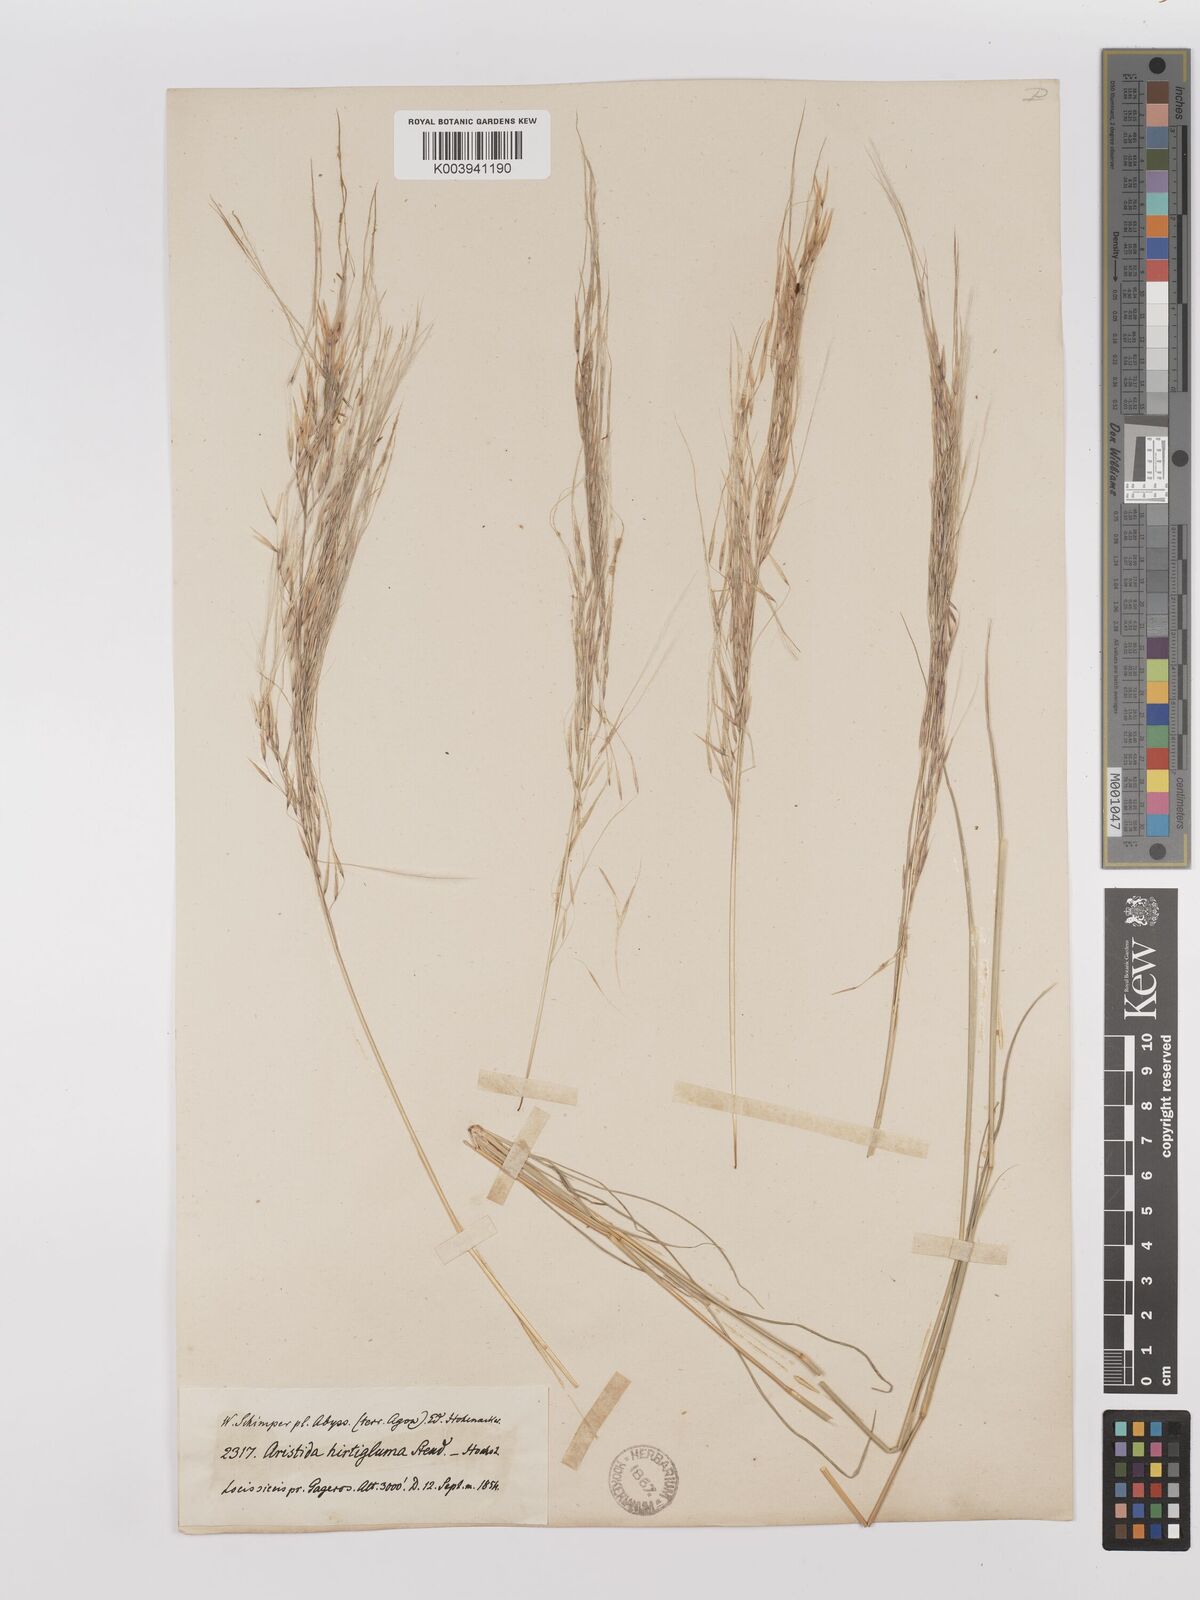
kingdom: Plantae
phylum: Tracheophyta
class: Liliopsida
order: Poales
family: Poaceae
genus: Stipagrostis
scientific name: Stipagrostis hirtigluma
